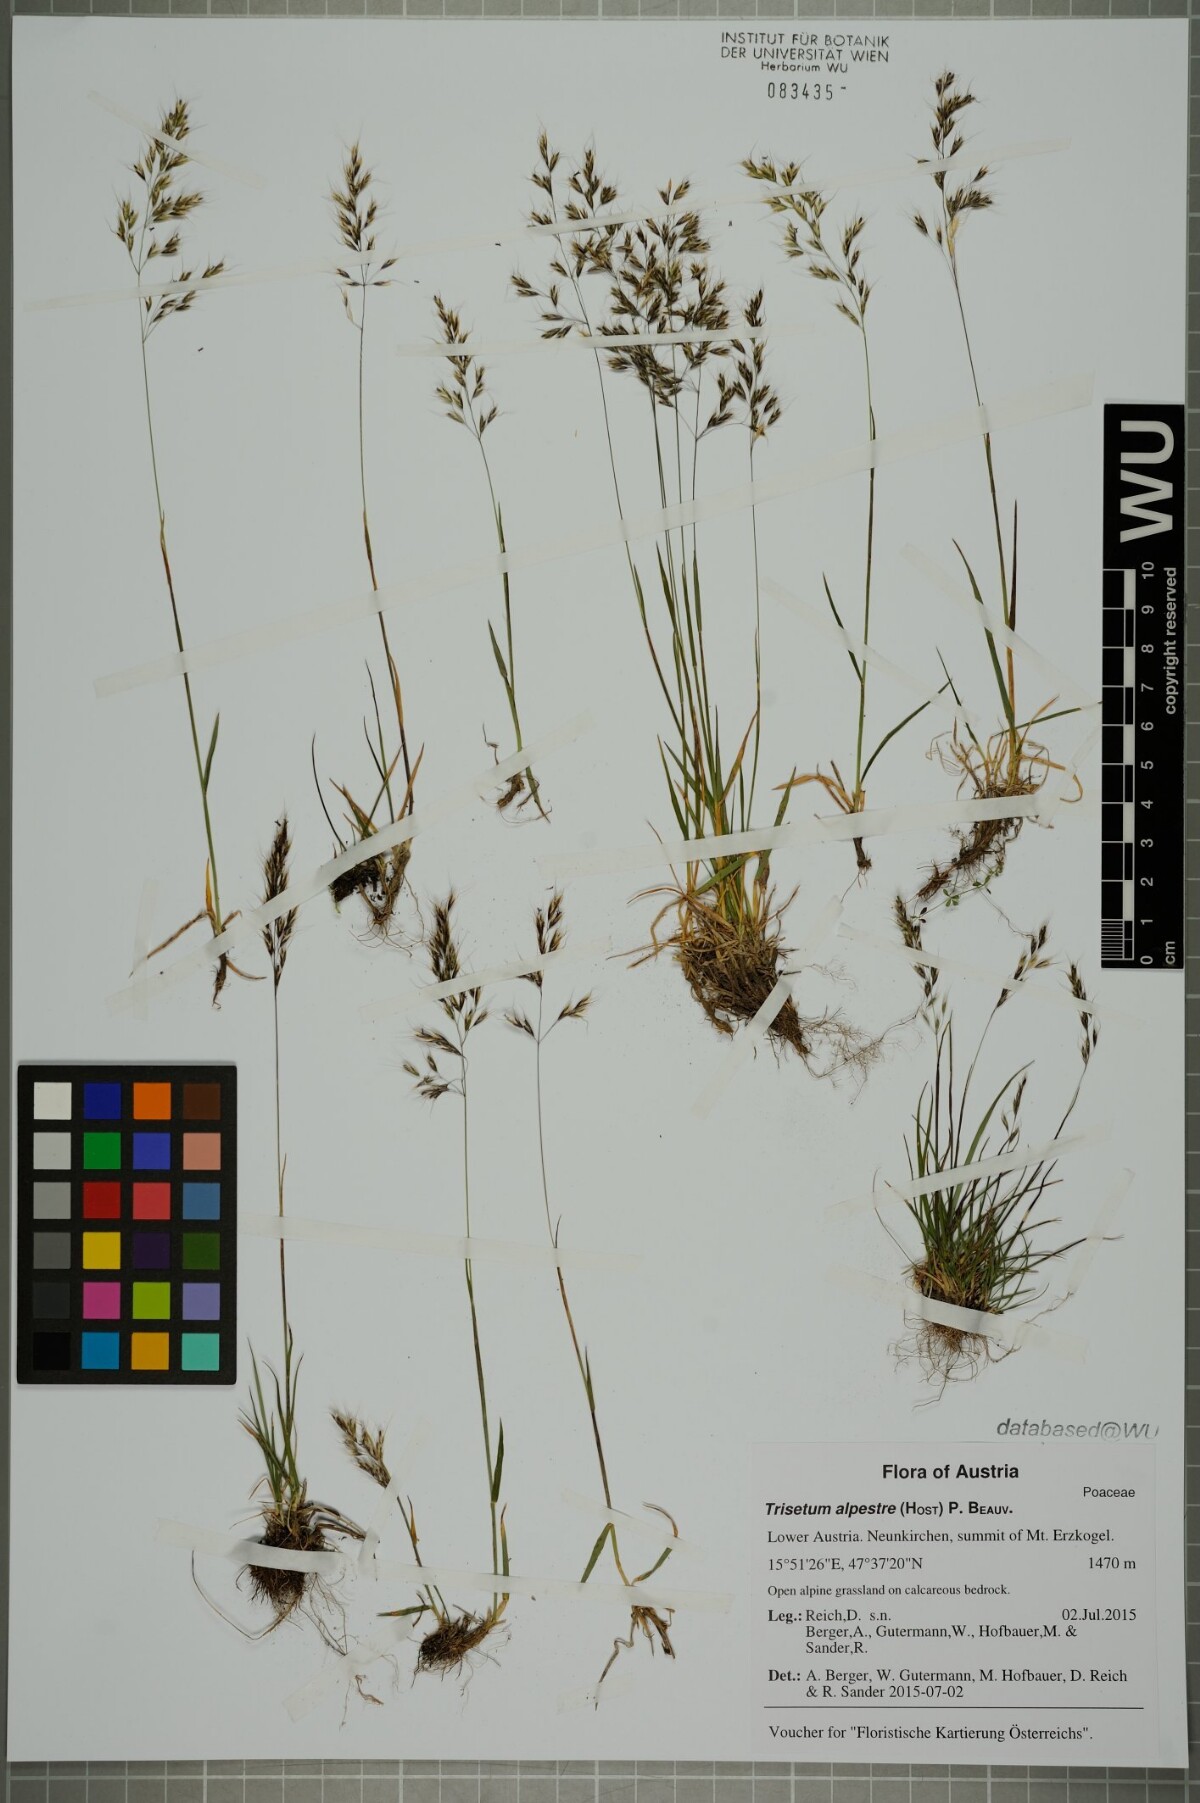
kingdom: Plantae
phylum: Tracheophyta
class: Liliopsida
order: Poales
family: Poaceae
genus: Trisetum
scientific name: Trisetum alpestre
